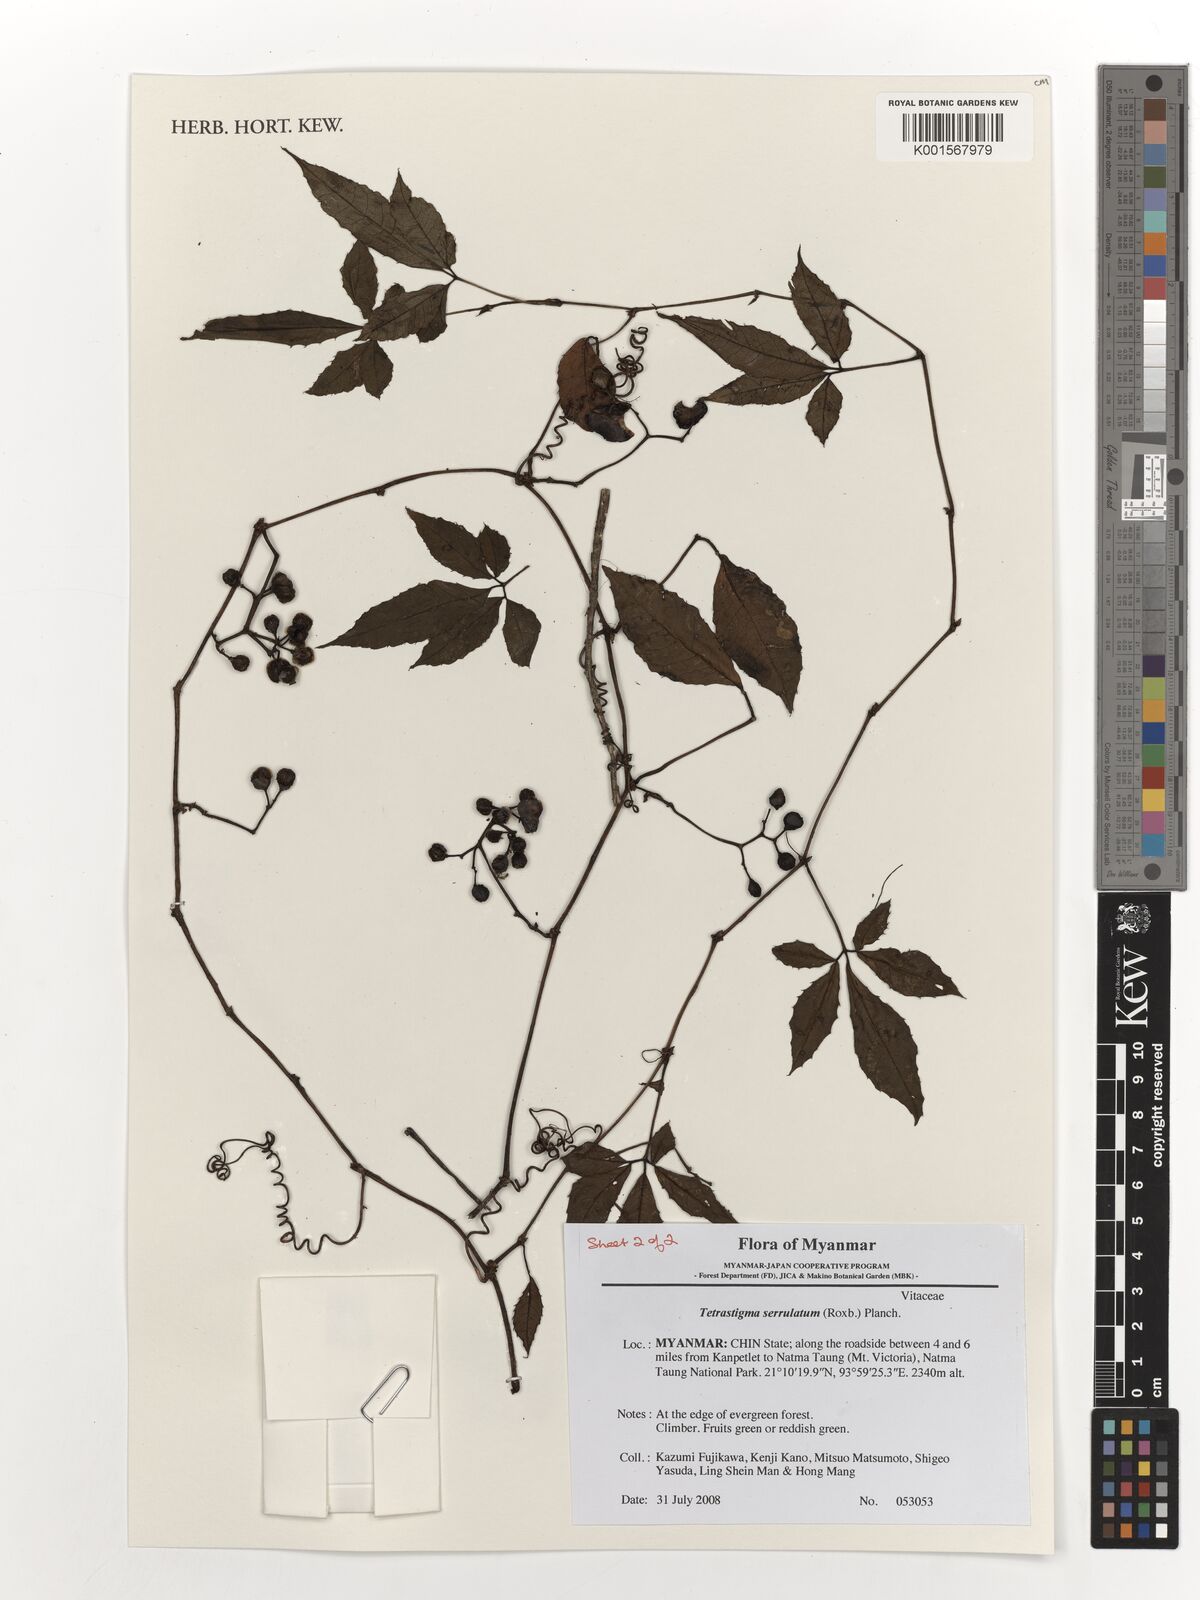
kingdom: Plantae
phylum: Tracheophyta
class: Magnoliopsida
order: Vitales
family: Vitaceae
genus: Tetrastigma
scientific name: Tetrastigma serrulatum
